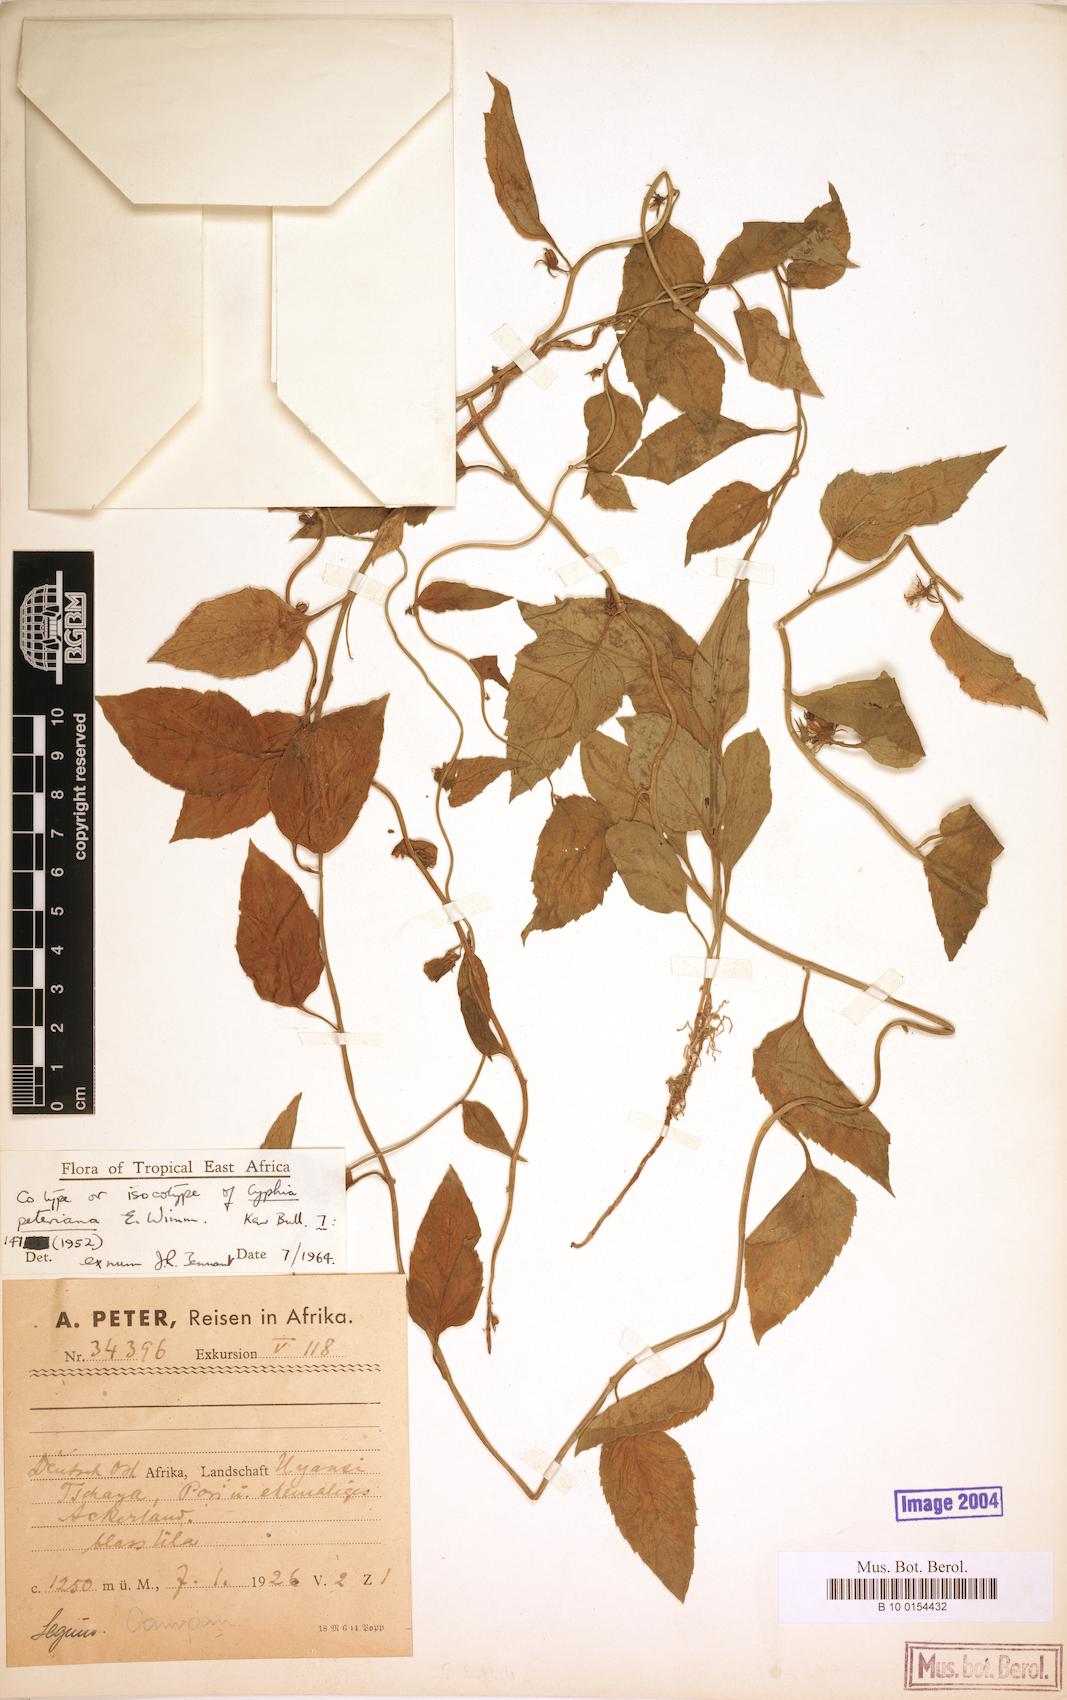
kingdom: Plantae
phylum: Tracheophyta
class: Magnoliopsida
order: Asterales
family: Campanulaceae
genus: Cyphia
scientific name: Cyphia lasiandra
